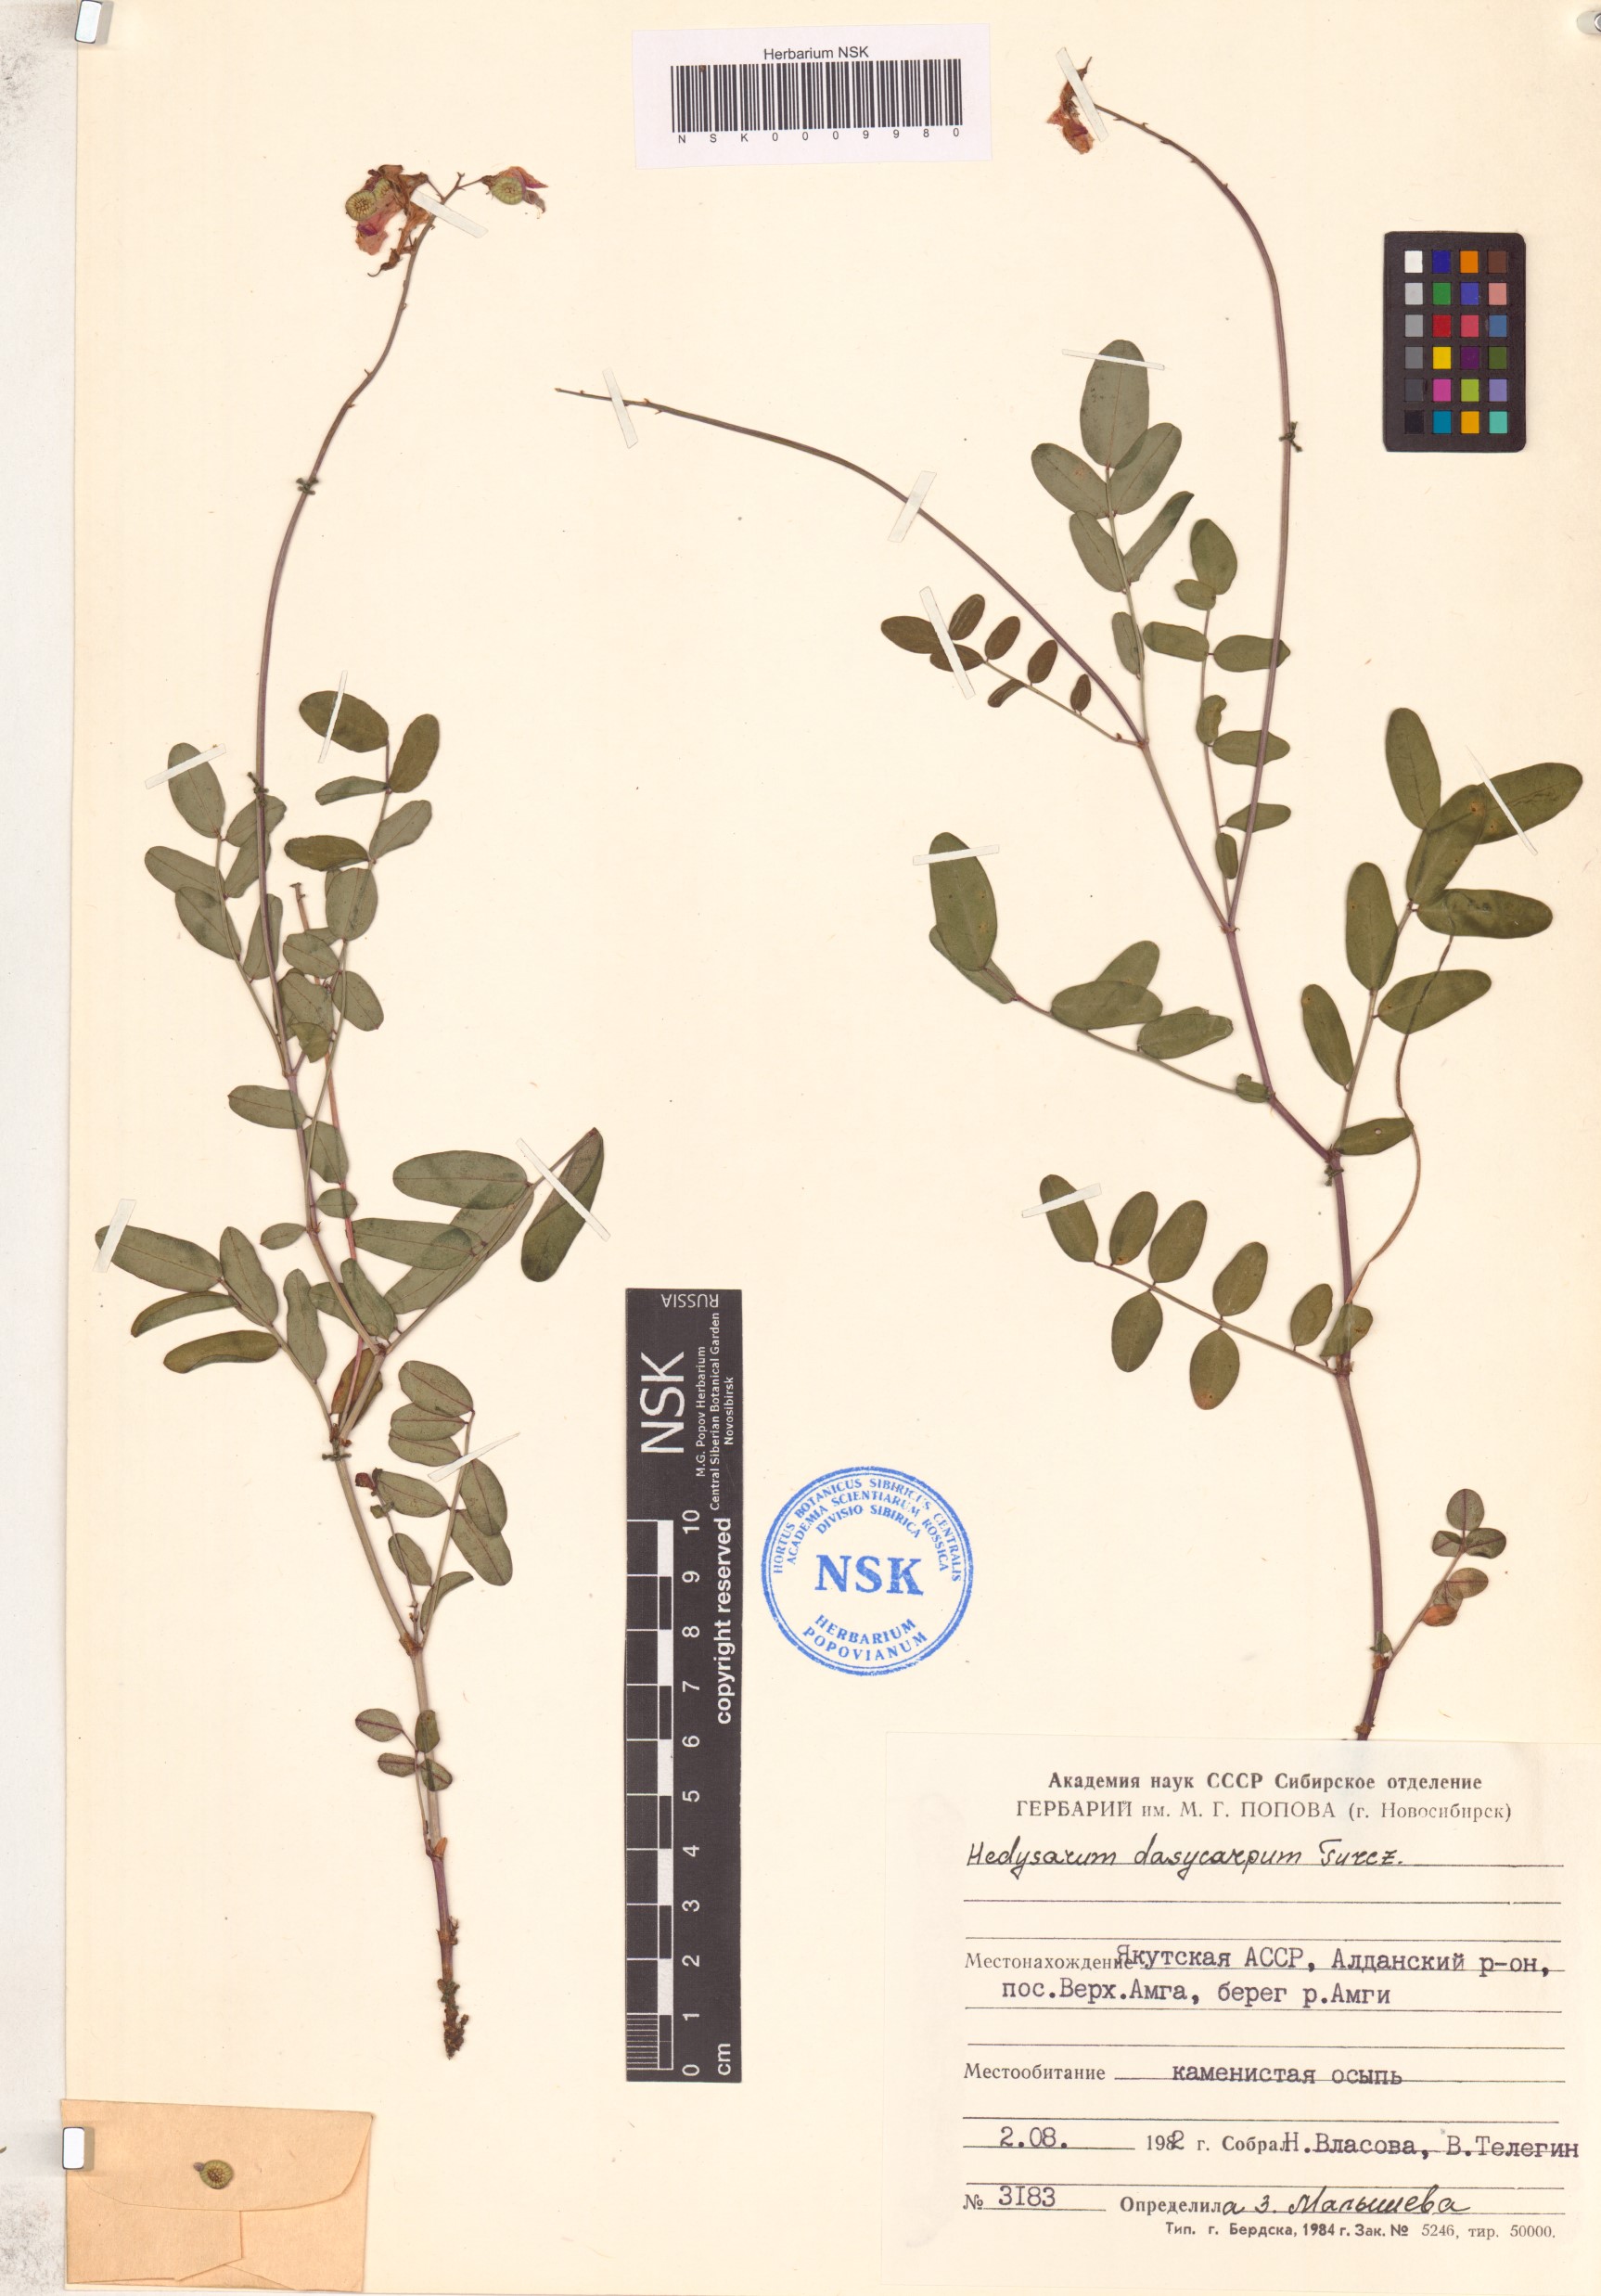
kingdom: Plantae
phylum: Tracheophyta
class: Magnoliopsida
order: Fabales
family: Fabaceae
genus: Hedysarum
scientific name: Hedysarum dasycarpum
